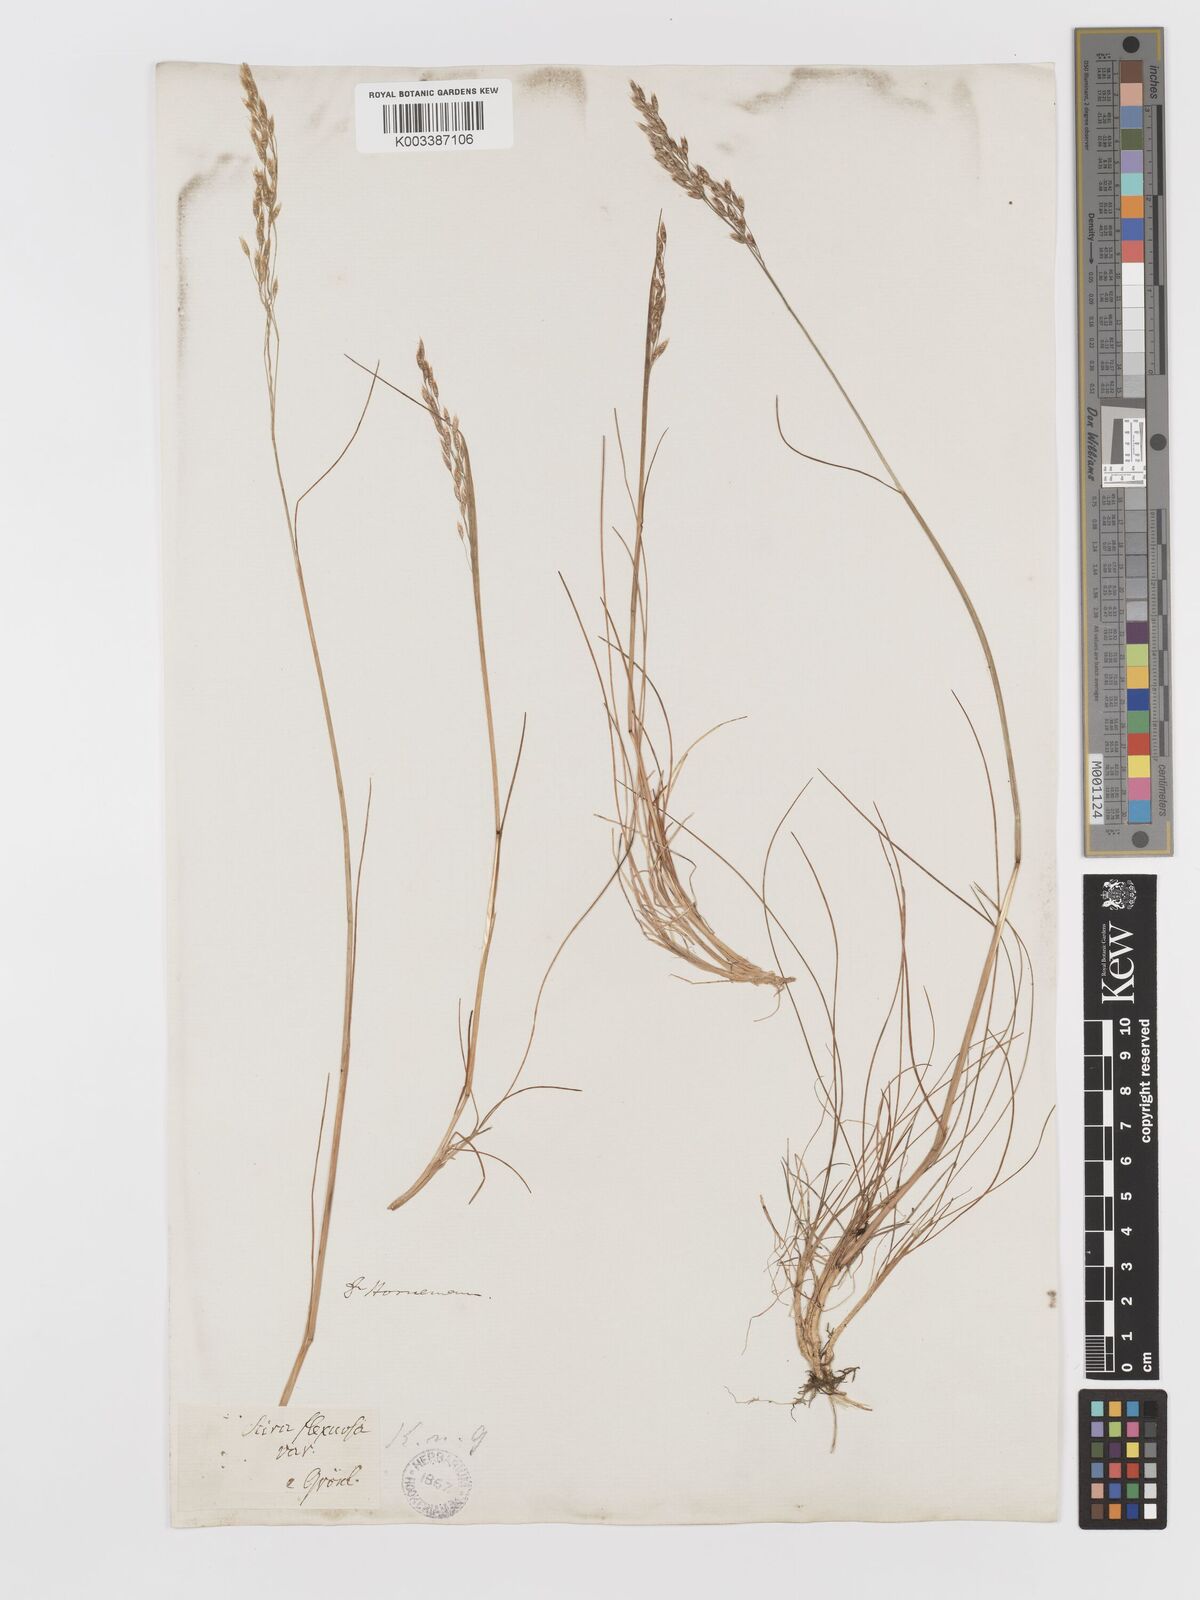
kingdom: Plantae
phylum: Tracheophyta
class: Liliopsida
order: Poales
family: Poaceae
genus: Avenella
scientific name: Avenella flexuosa
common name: Wavy hairgrass
